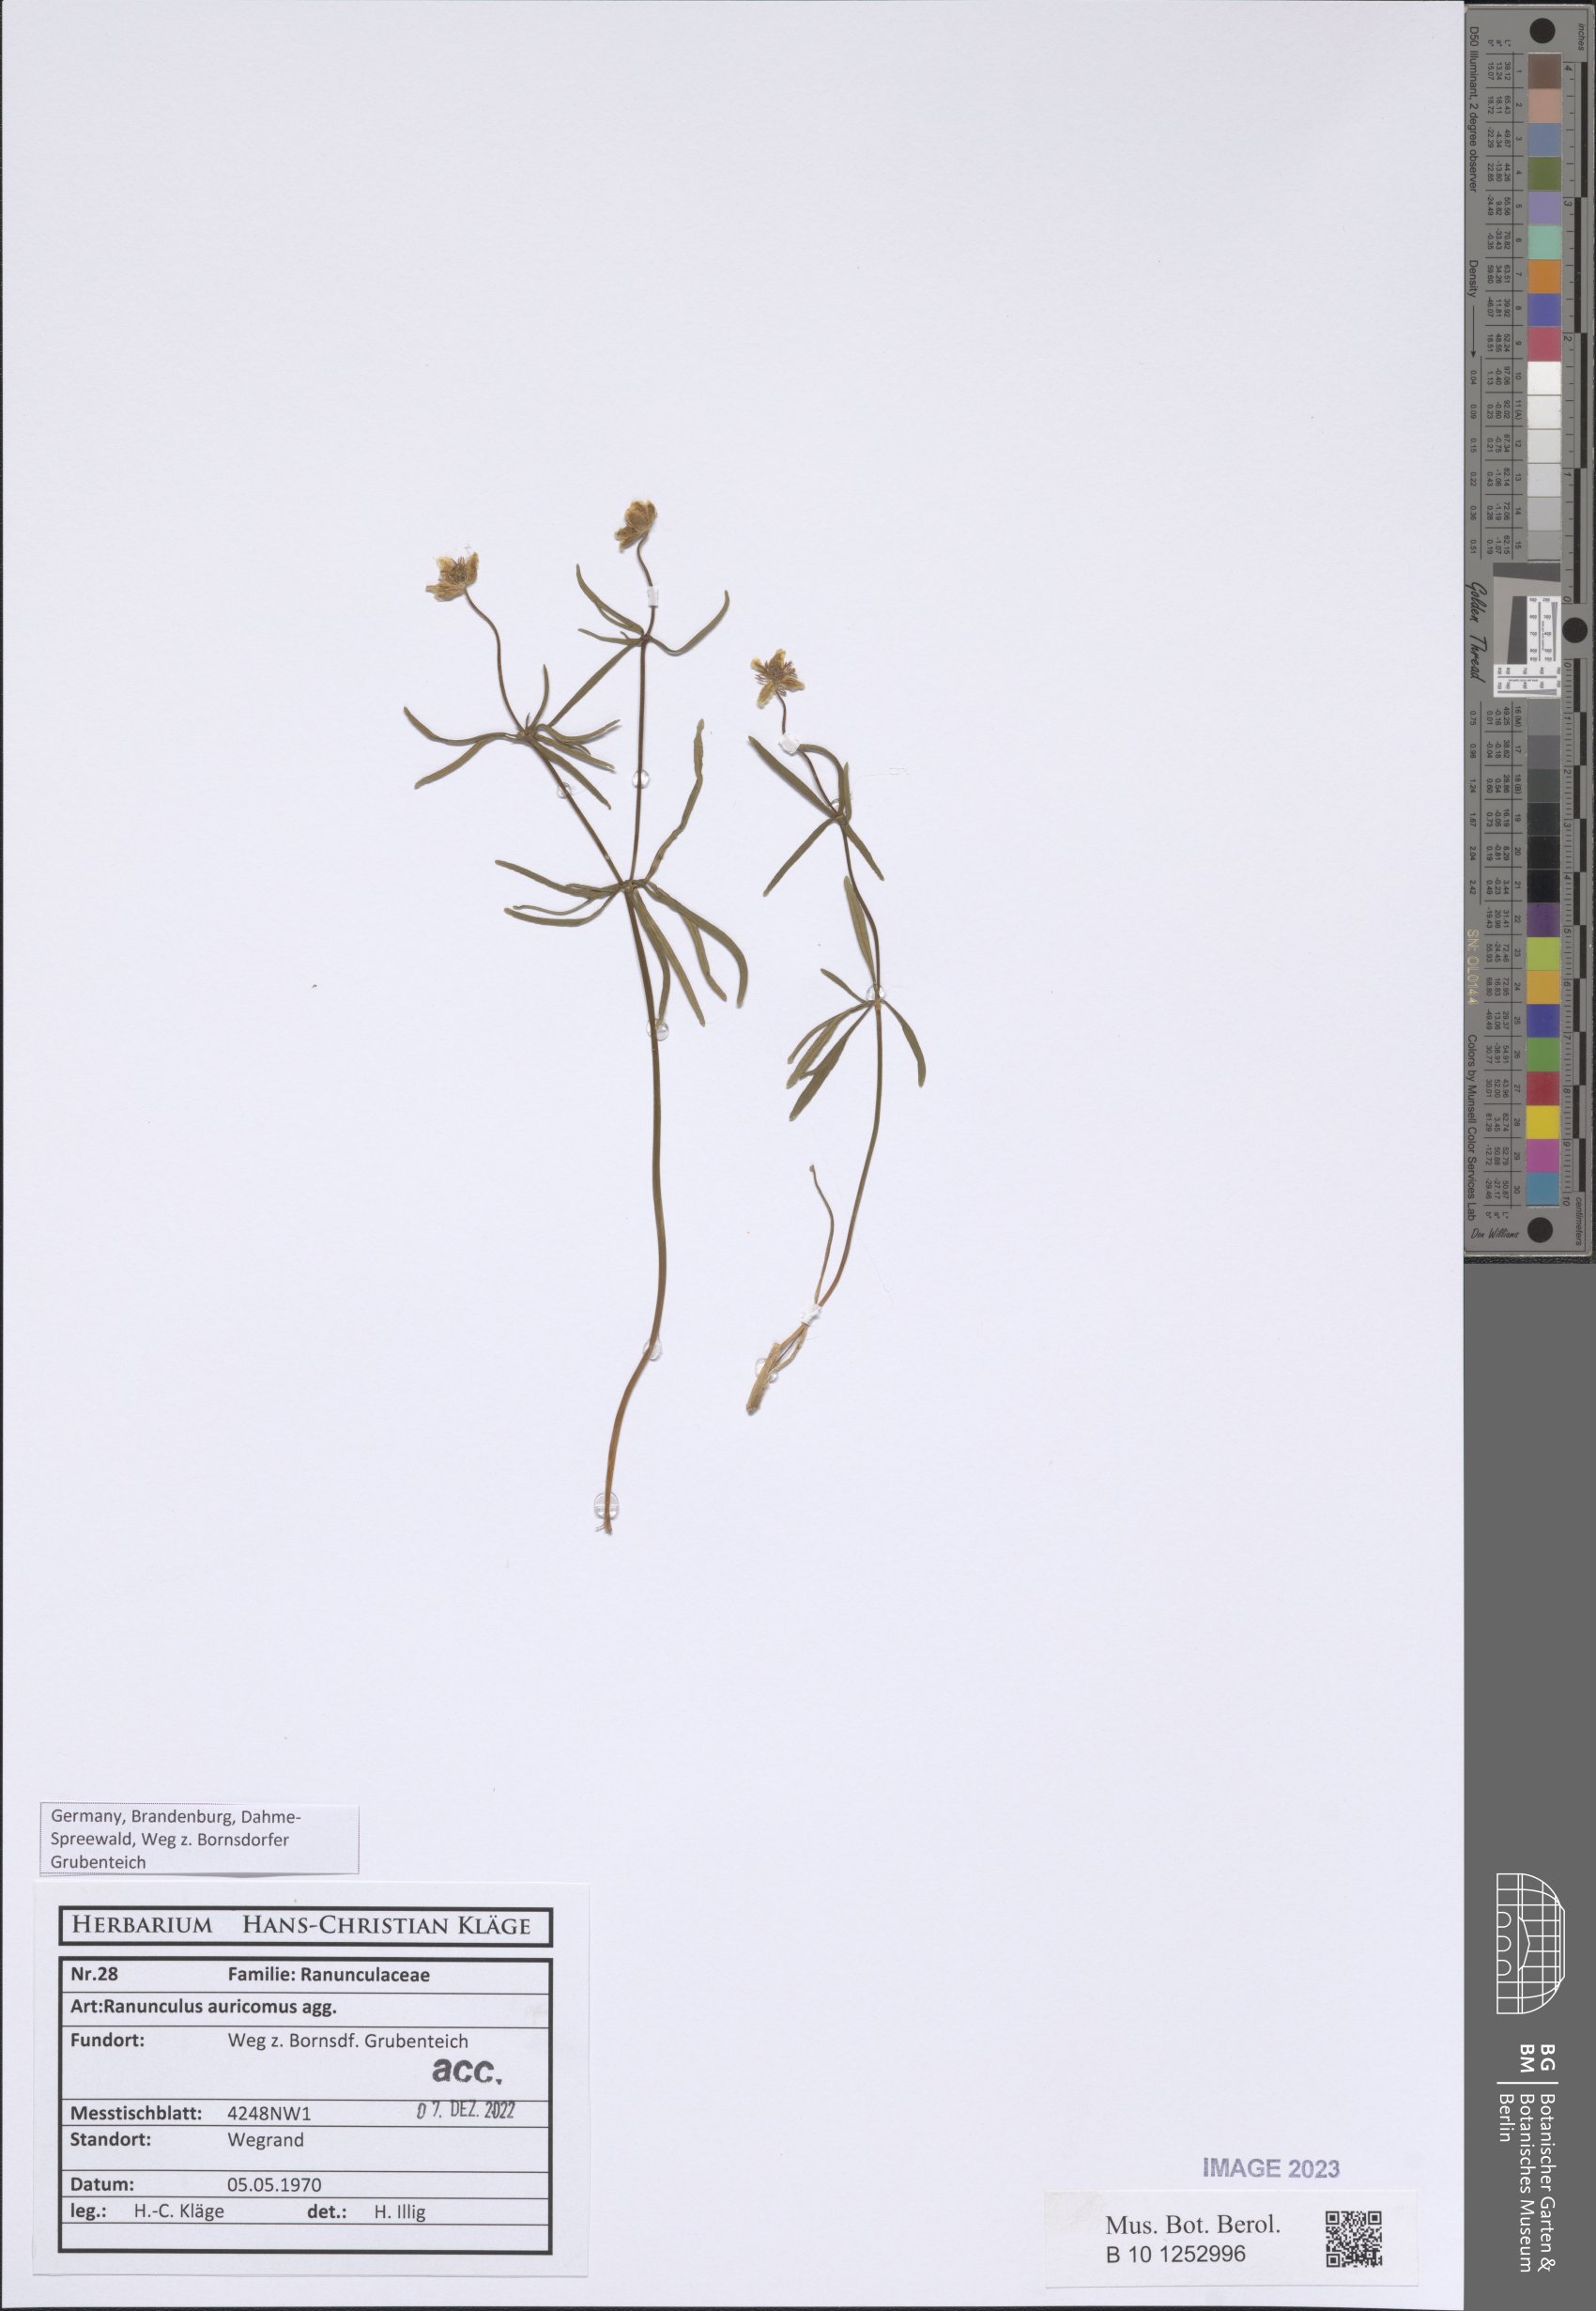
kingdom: Plantae
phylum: Tracheophyta
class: Magnoliopsida
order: Ranunculales
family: Ranunculaceae
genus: Ranunculus
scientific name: Ranunculus auricomus
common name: Goldilocks buttercup
